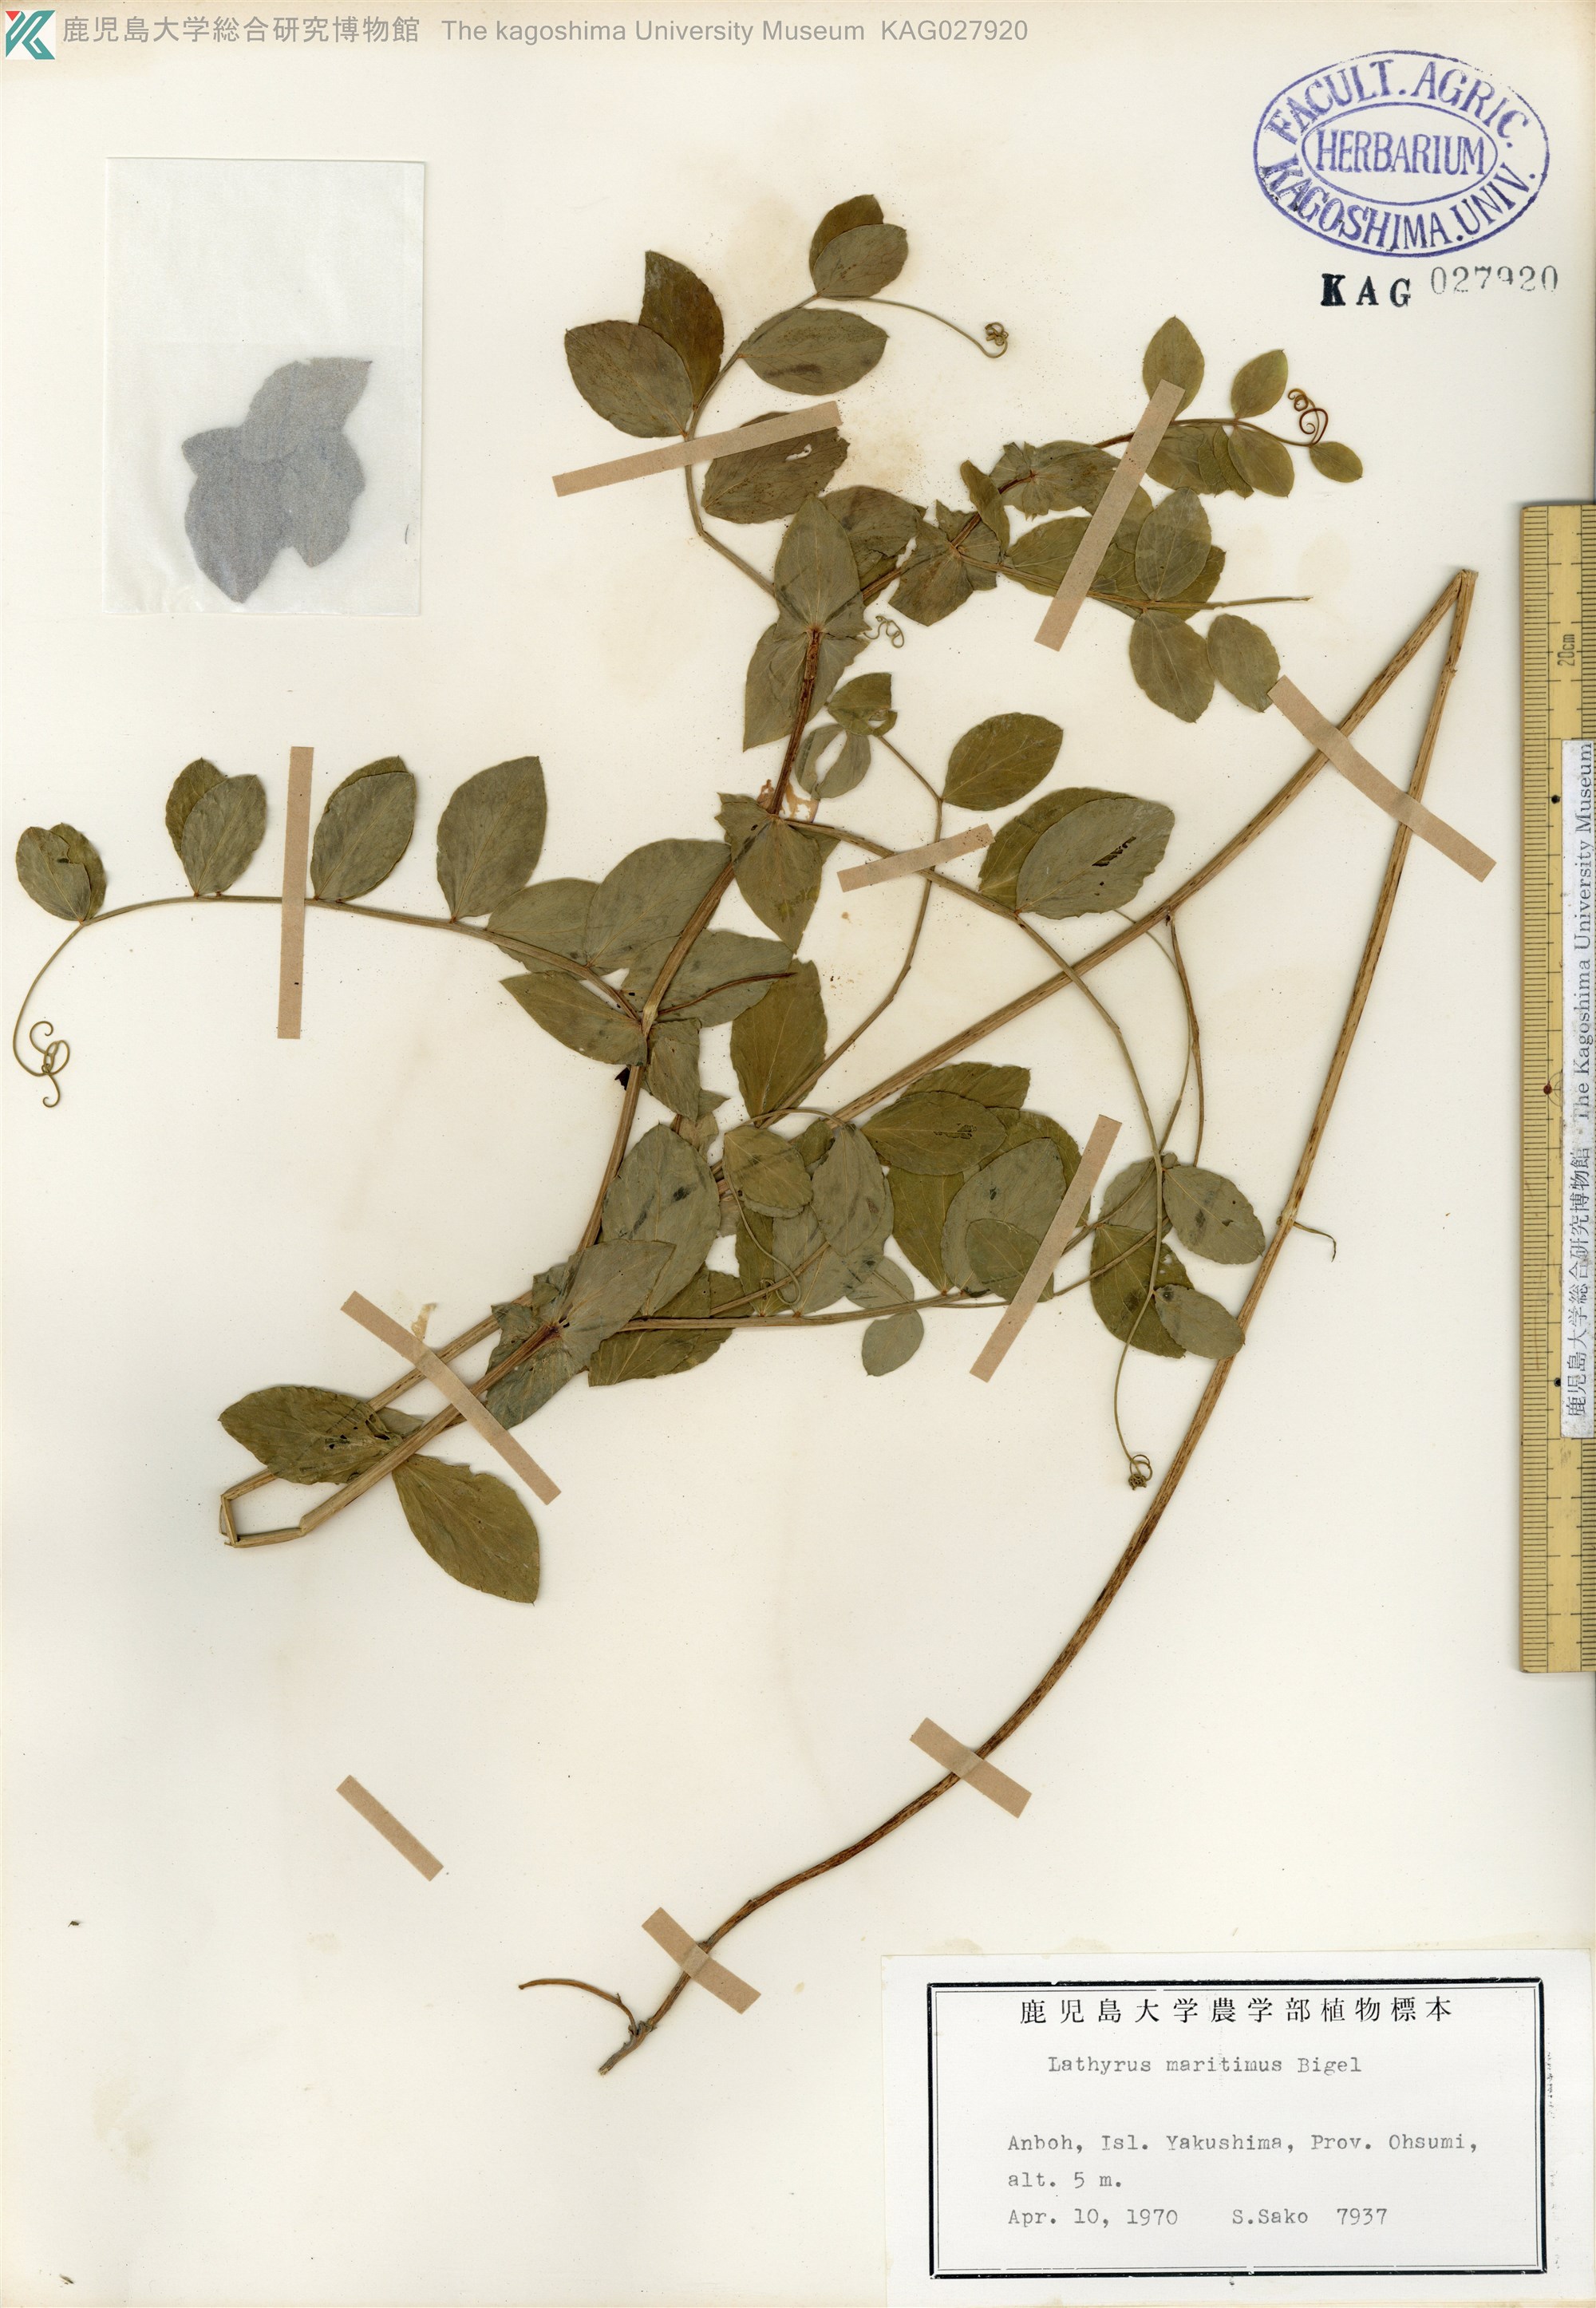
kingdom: Plantae
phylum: Tracheophyta
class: Magnoliopsida
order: Fabales
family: Fabaceae
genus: Lathyrus
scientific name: Lathyrus japonicus
